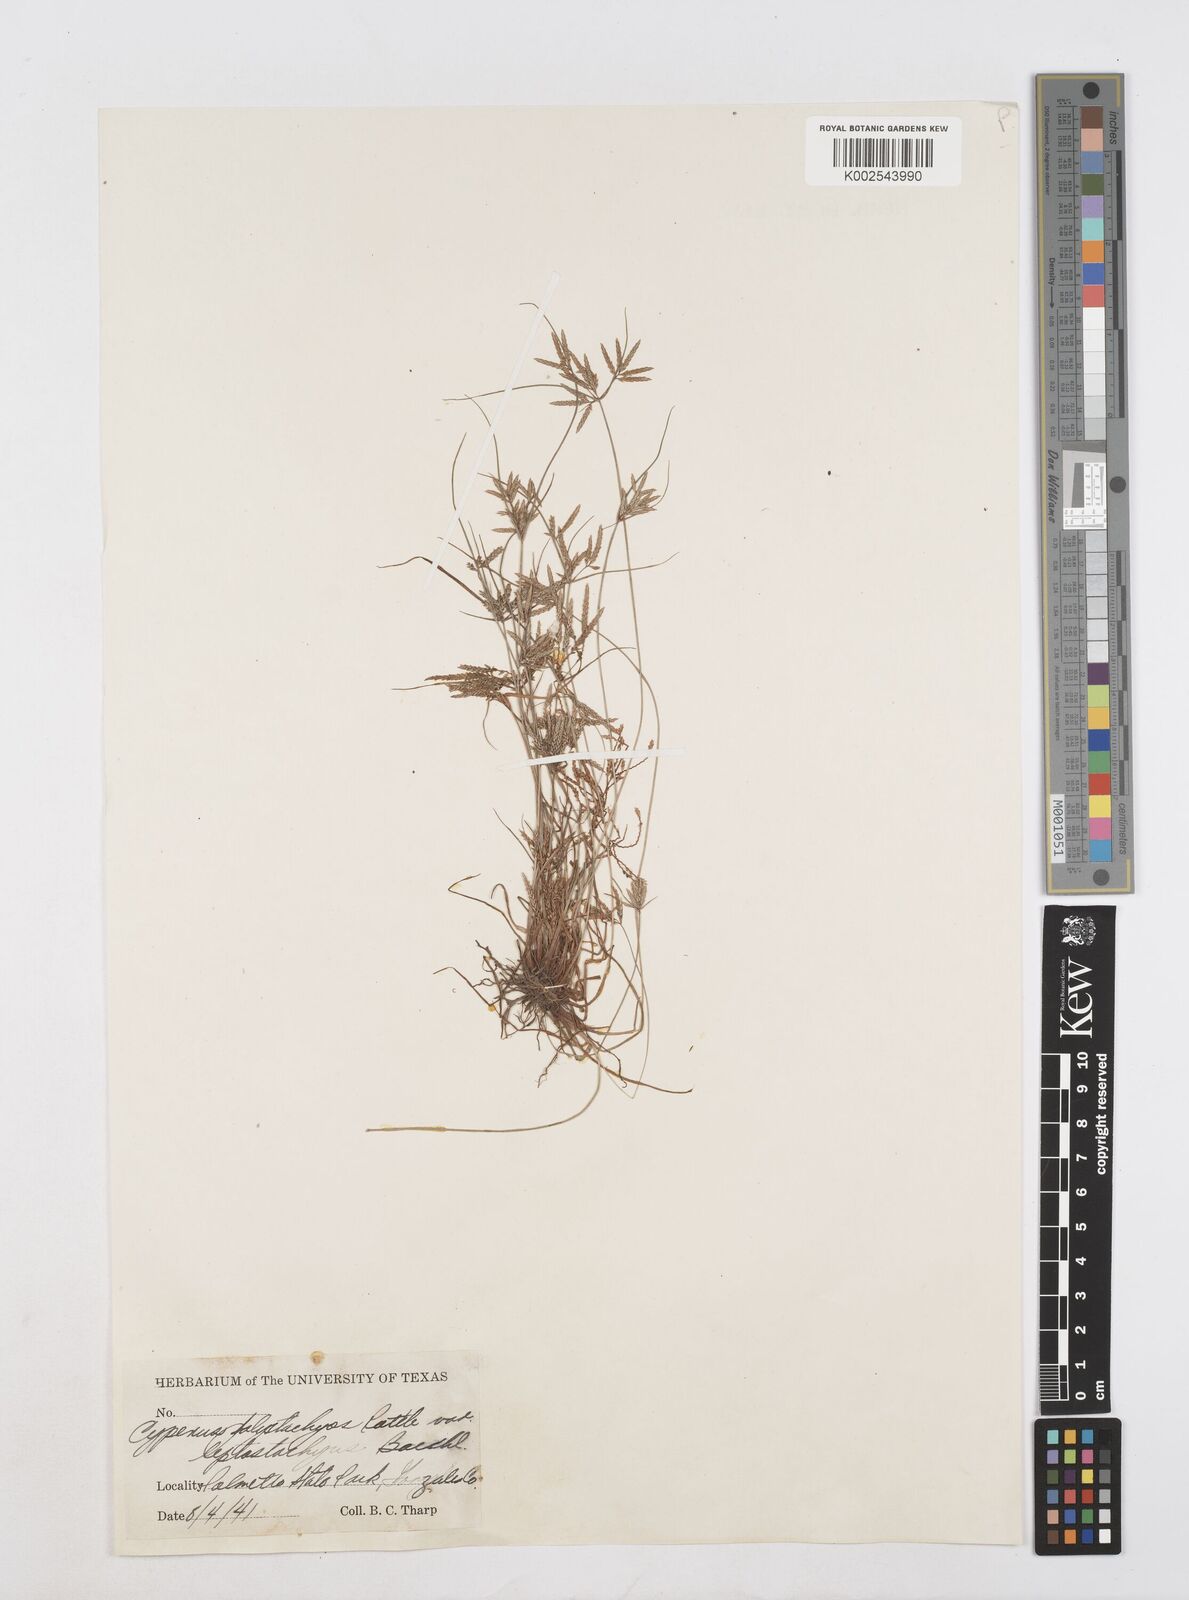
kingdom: Plantae
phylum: Tracheophyta
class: Liliopsida
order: Poales
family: Cyperaceae
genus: Cyperus
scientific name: Cyperus polystachyos
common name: Bunchy flat sedge
